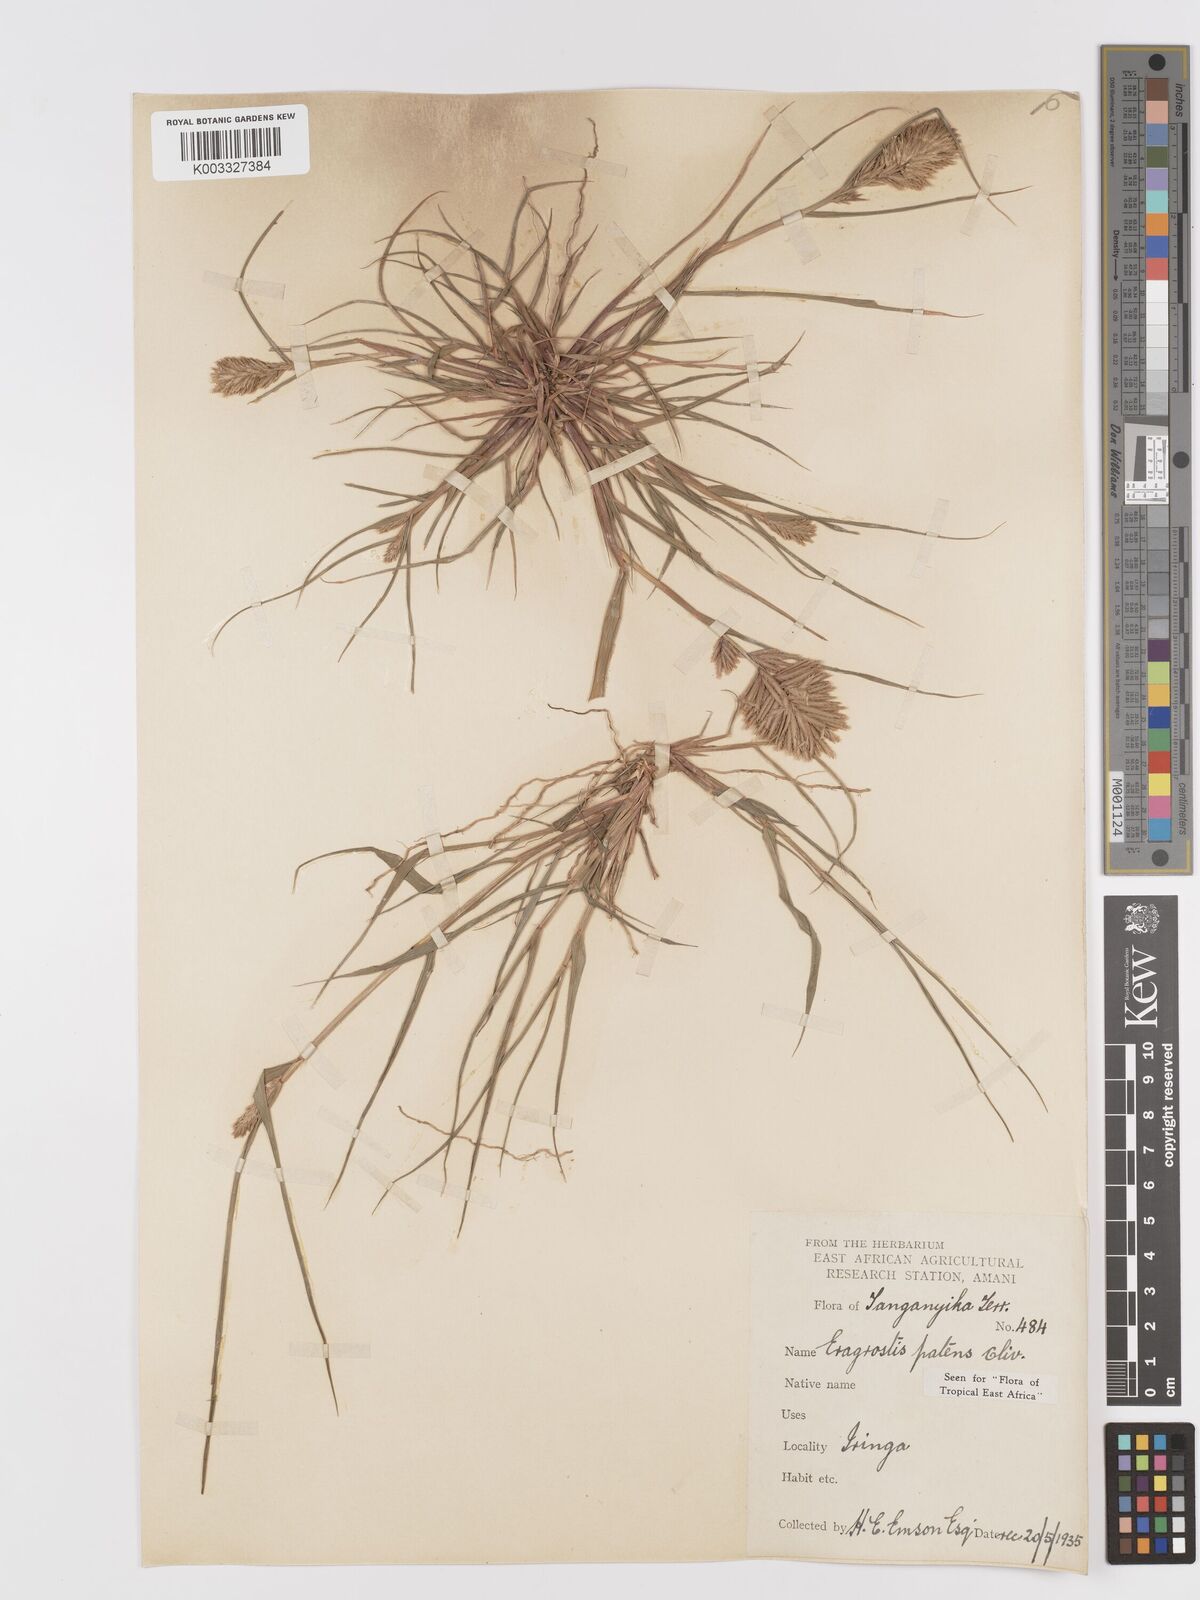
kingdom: Plantae
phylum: Tracheophyta
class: Liliopsida
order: Poales
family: Poaceae
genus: Eragrostis
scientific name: Eragrostis patens
